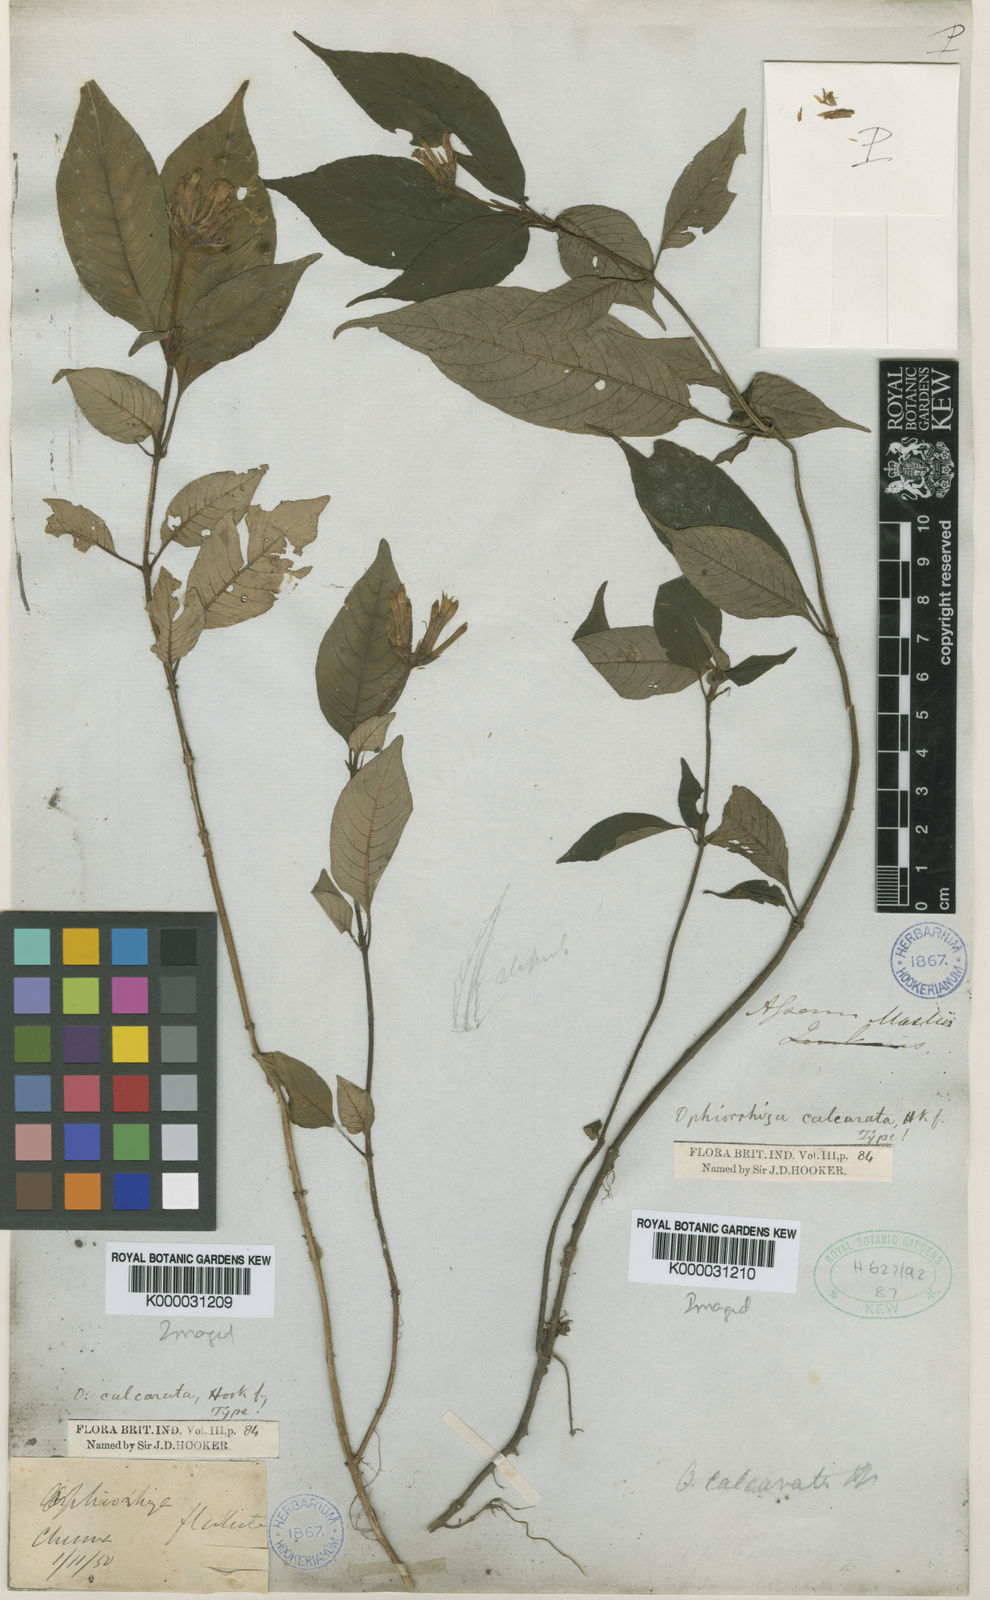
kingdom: Plantae
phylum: Tracheophyta
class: Magnoliopsida
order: Gentianales
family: Rubiaceae
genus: Ophiorrhiza
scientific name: Ophiorrhiza repens
